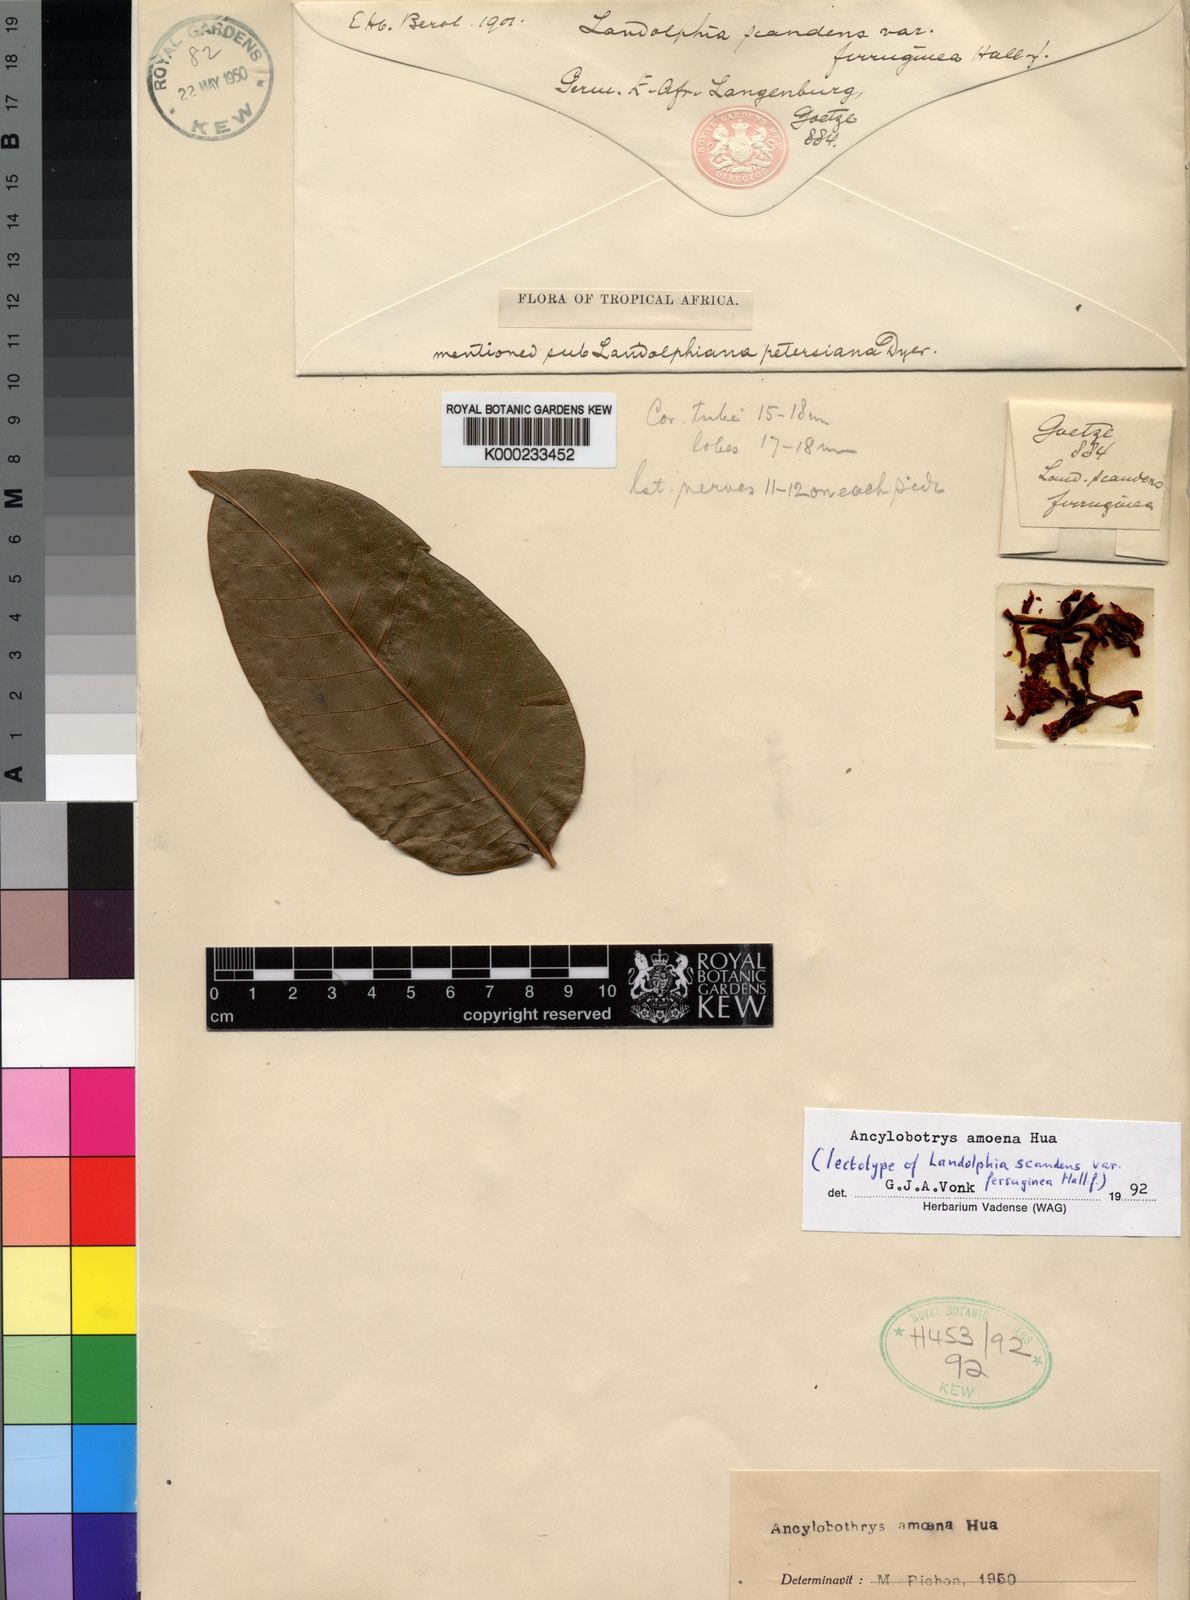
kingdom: Plantae
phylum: Tracheophyta
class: Magnoliopsida
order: Gentianales
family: Apocynaceae
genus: Ancylobothrys
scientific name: Ancylobothrys scandens
